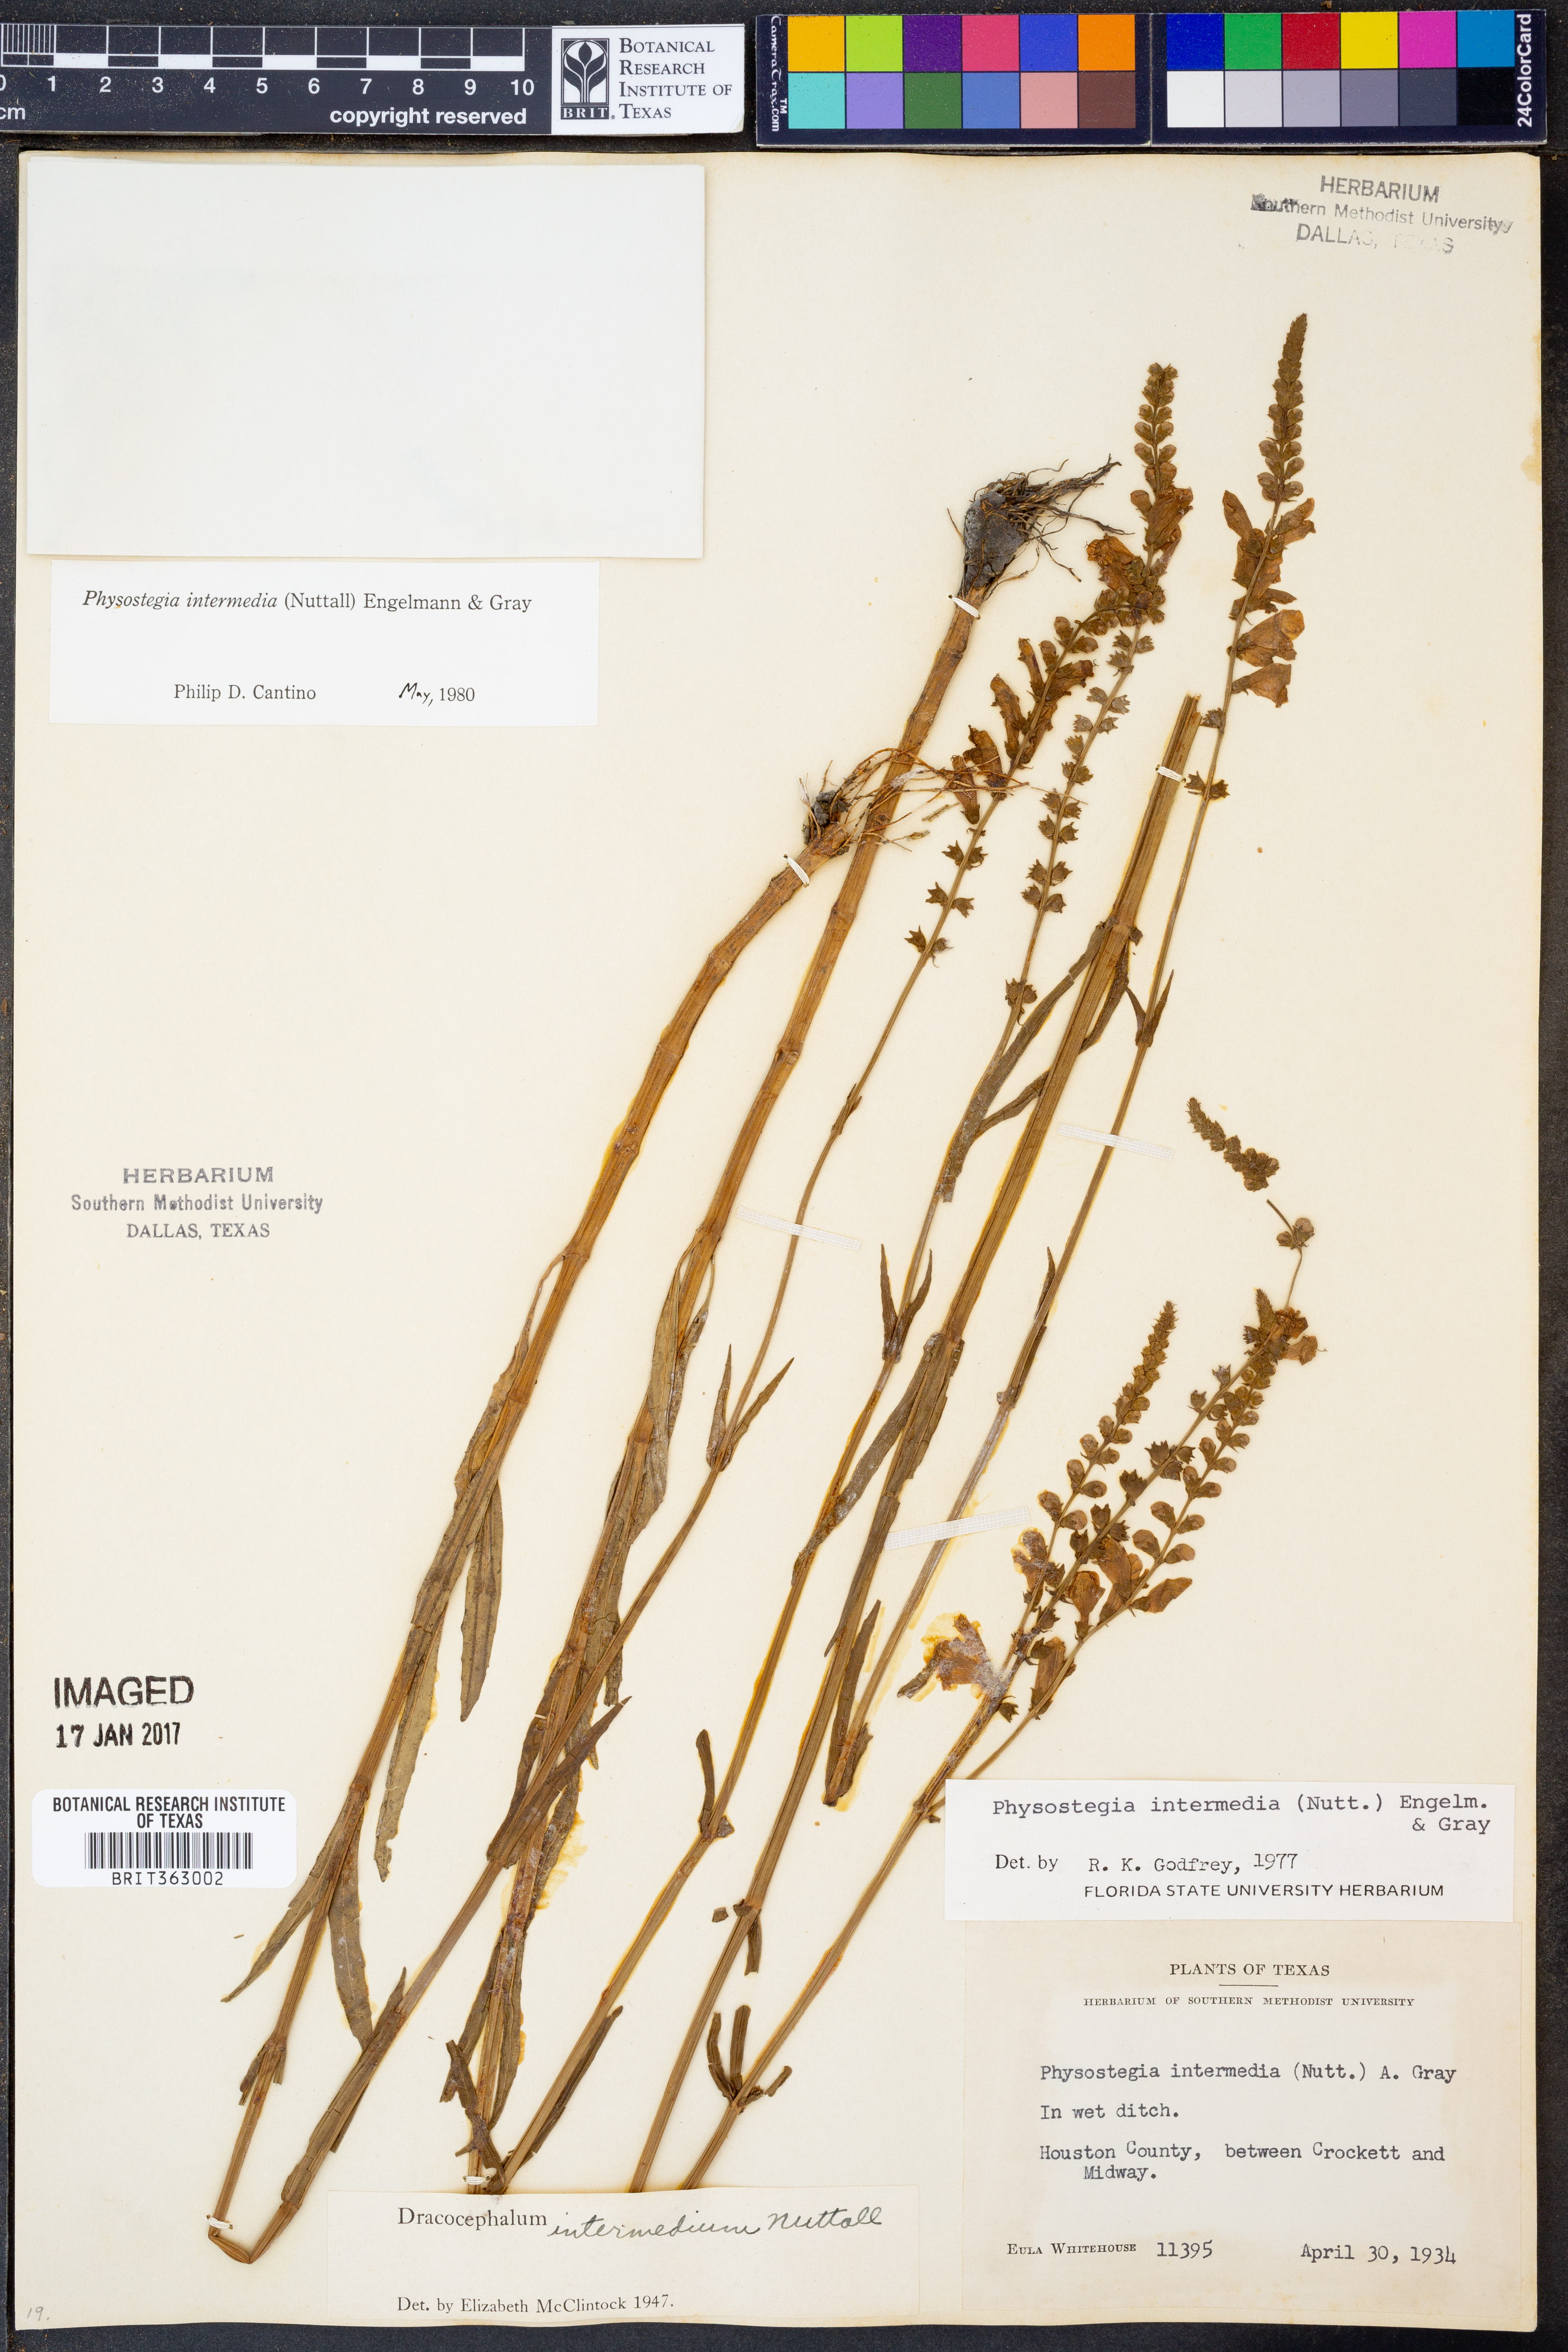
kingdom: Plantae
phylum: Tracheophyta
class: Magnoliopsida
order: Lamiales
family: Lamiaceae
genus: Physostegia
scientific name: Physostegia intermedia
